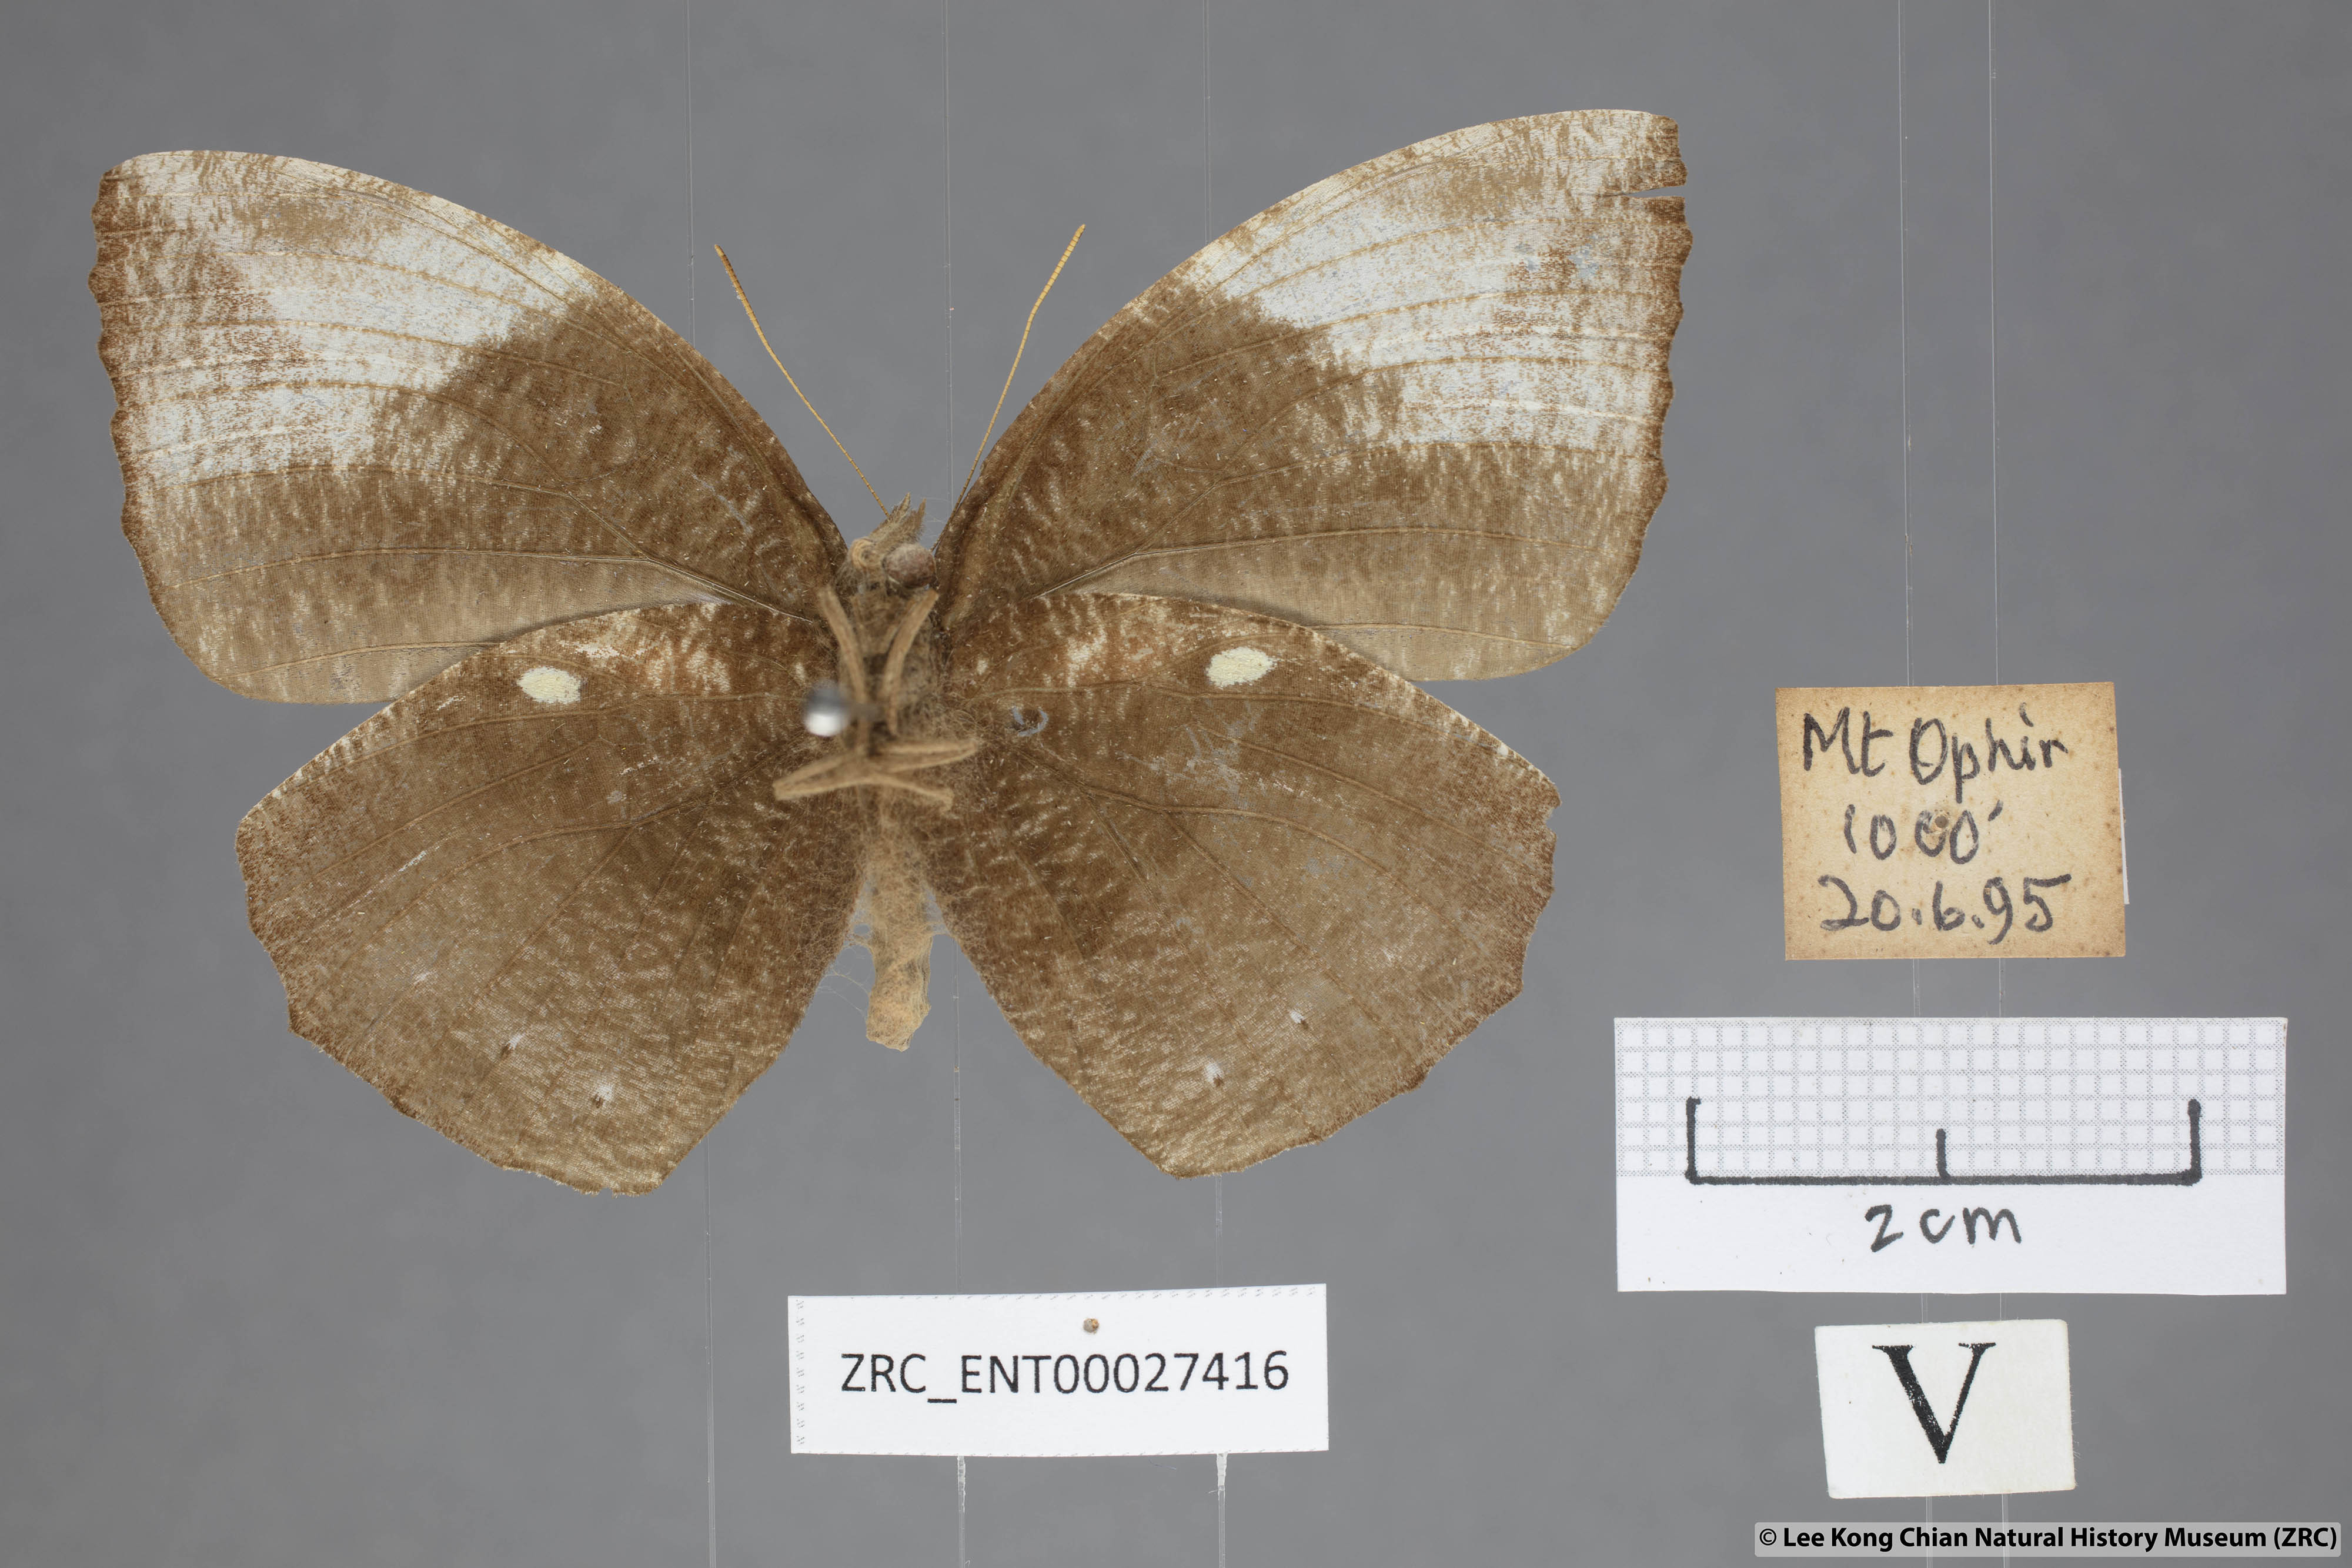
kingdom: Animalia
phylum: Arthropoda
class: Insecta
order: Lepidoptera
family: Nymphalidae
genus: Elymnias
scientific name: Elymnias penanga
